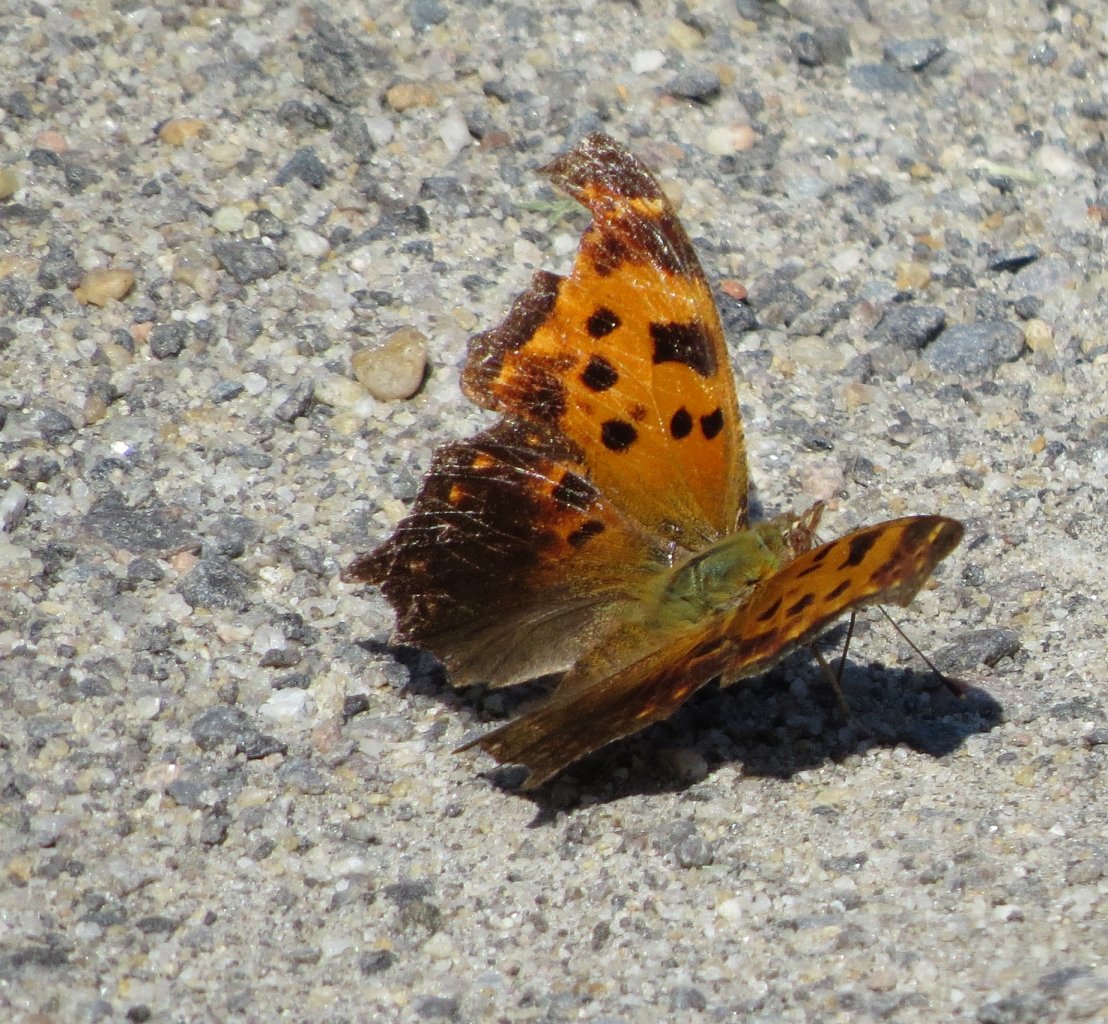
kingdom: Animalia
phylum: Arthropoda
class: Insecta
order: Lepidoptera
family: Nymphalidae
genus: Polygonia
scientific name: Polygonia comma
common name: Eastern Comma
